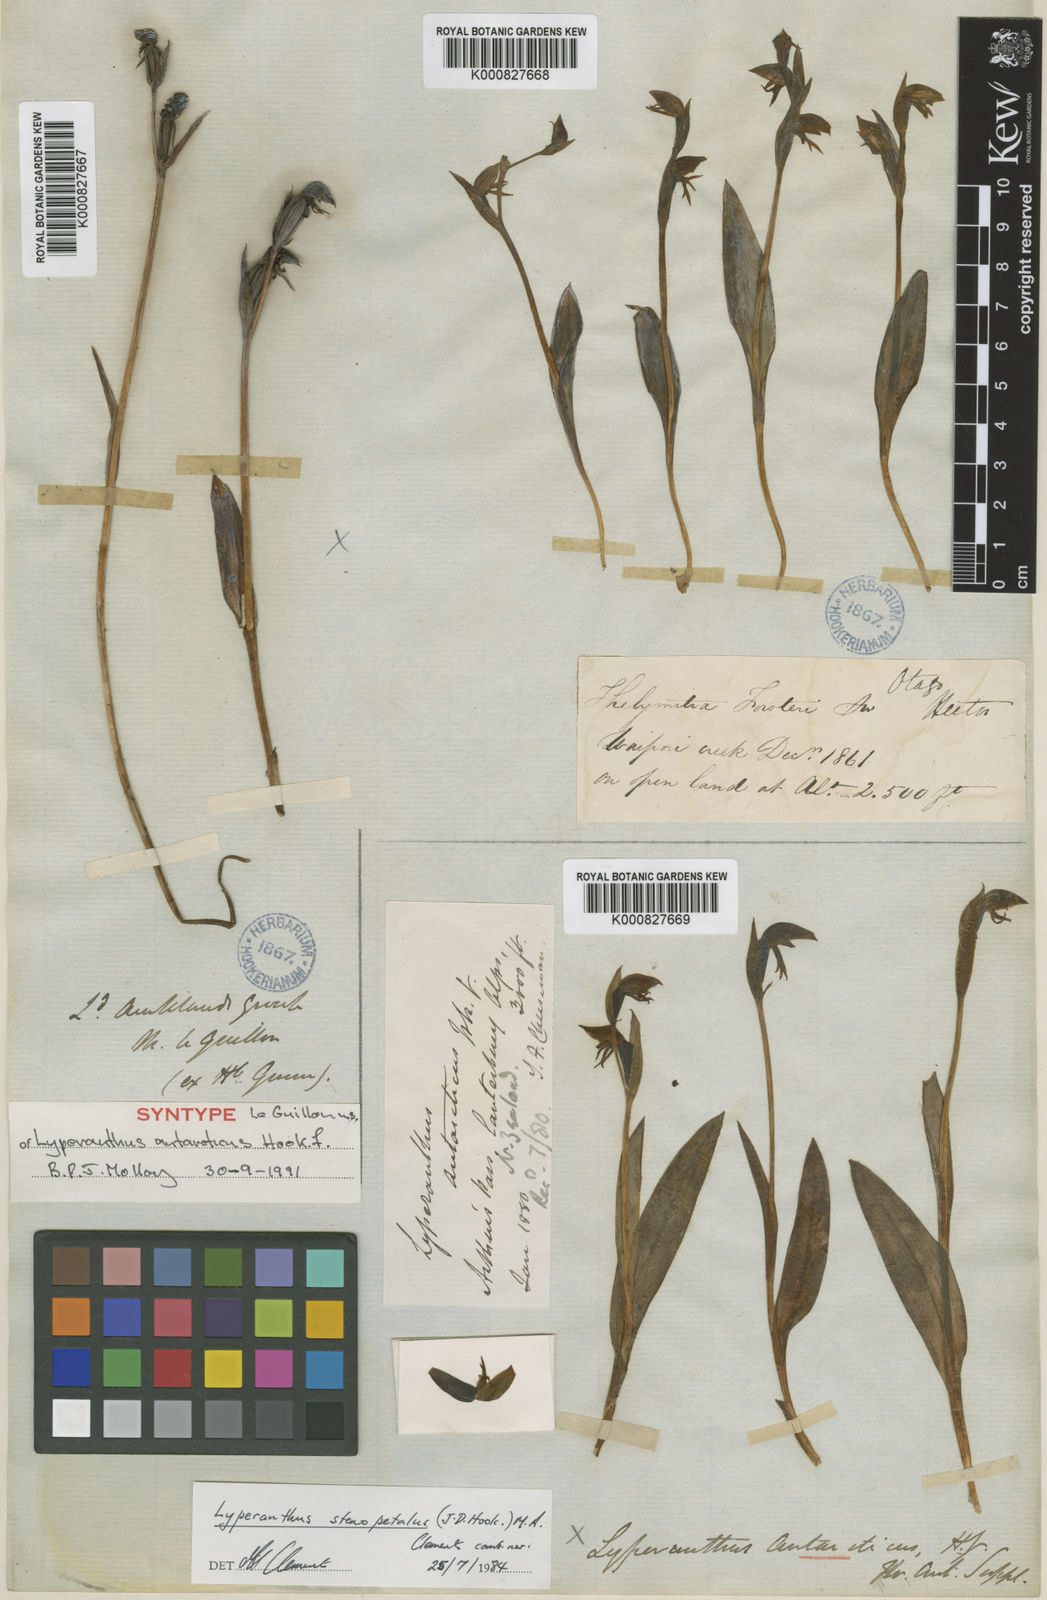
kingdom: Plantae
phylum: Tracheophyta
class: Liliopsida
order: Asparagales
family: Orchidaceae
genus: Lyperanthus
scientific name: Lyperanthus
